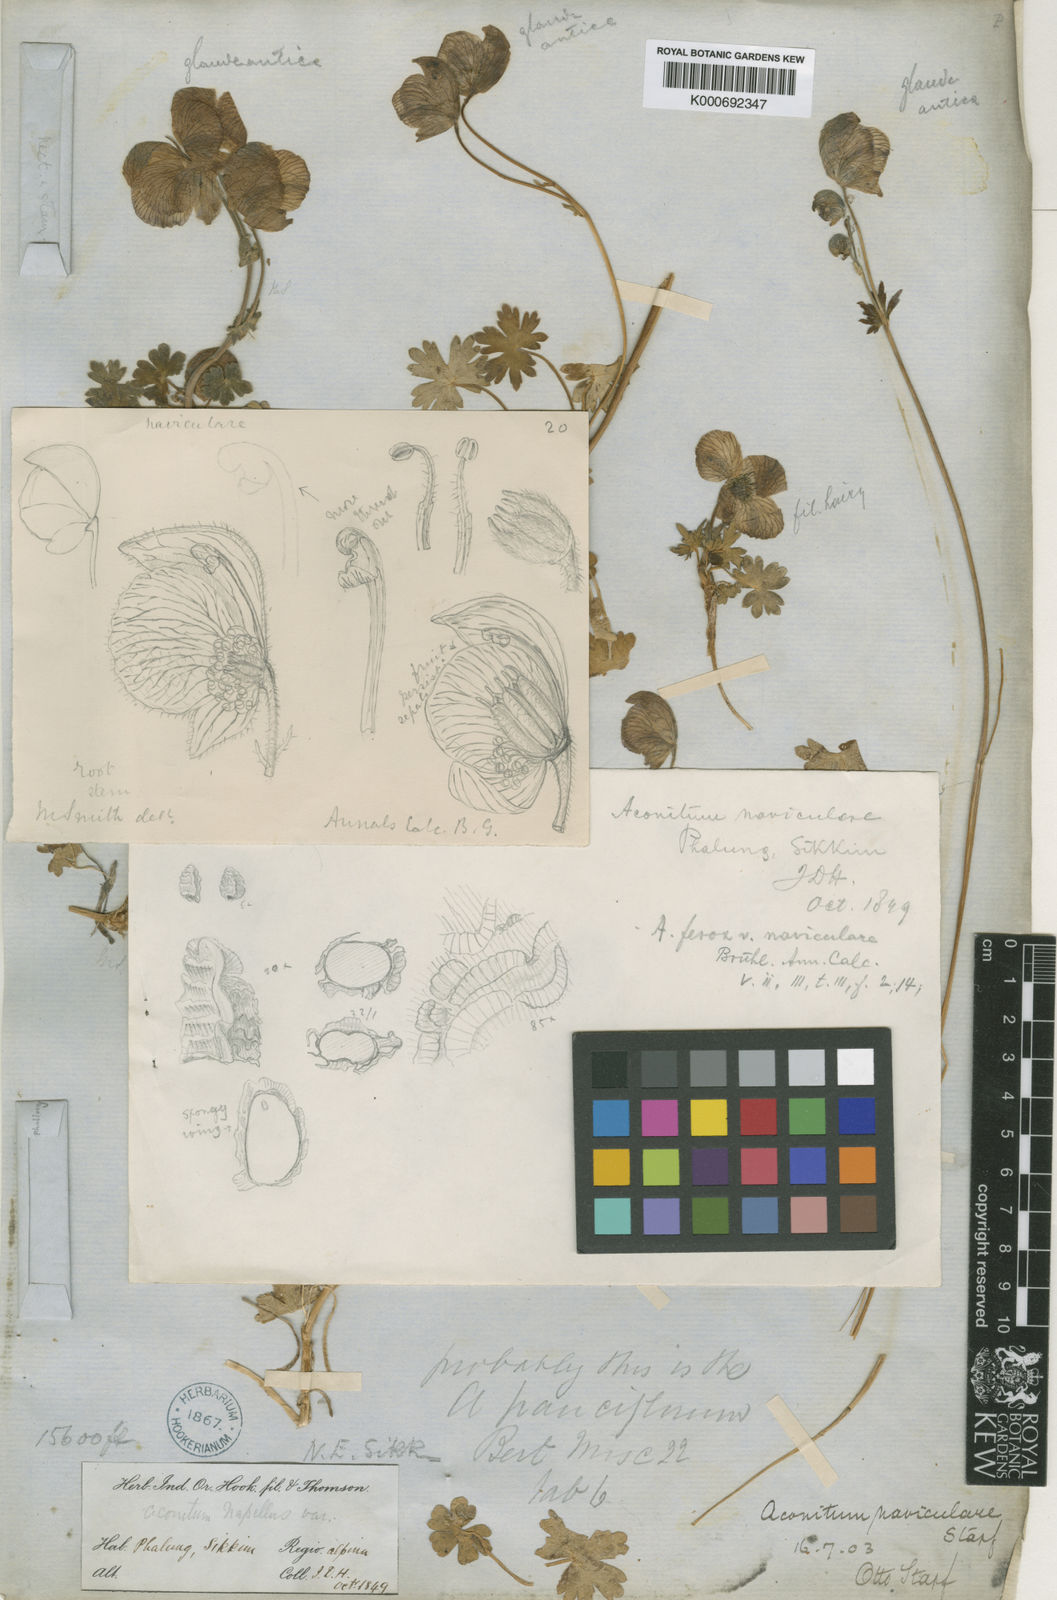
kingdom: Plantae
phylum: Tracheophyta
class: Magnoliopsida
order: Ranunculales
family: Ranunculaceae
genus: Aconitum
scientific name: Aconitum naviculare
